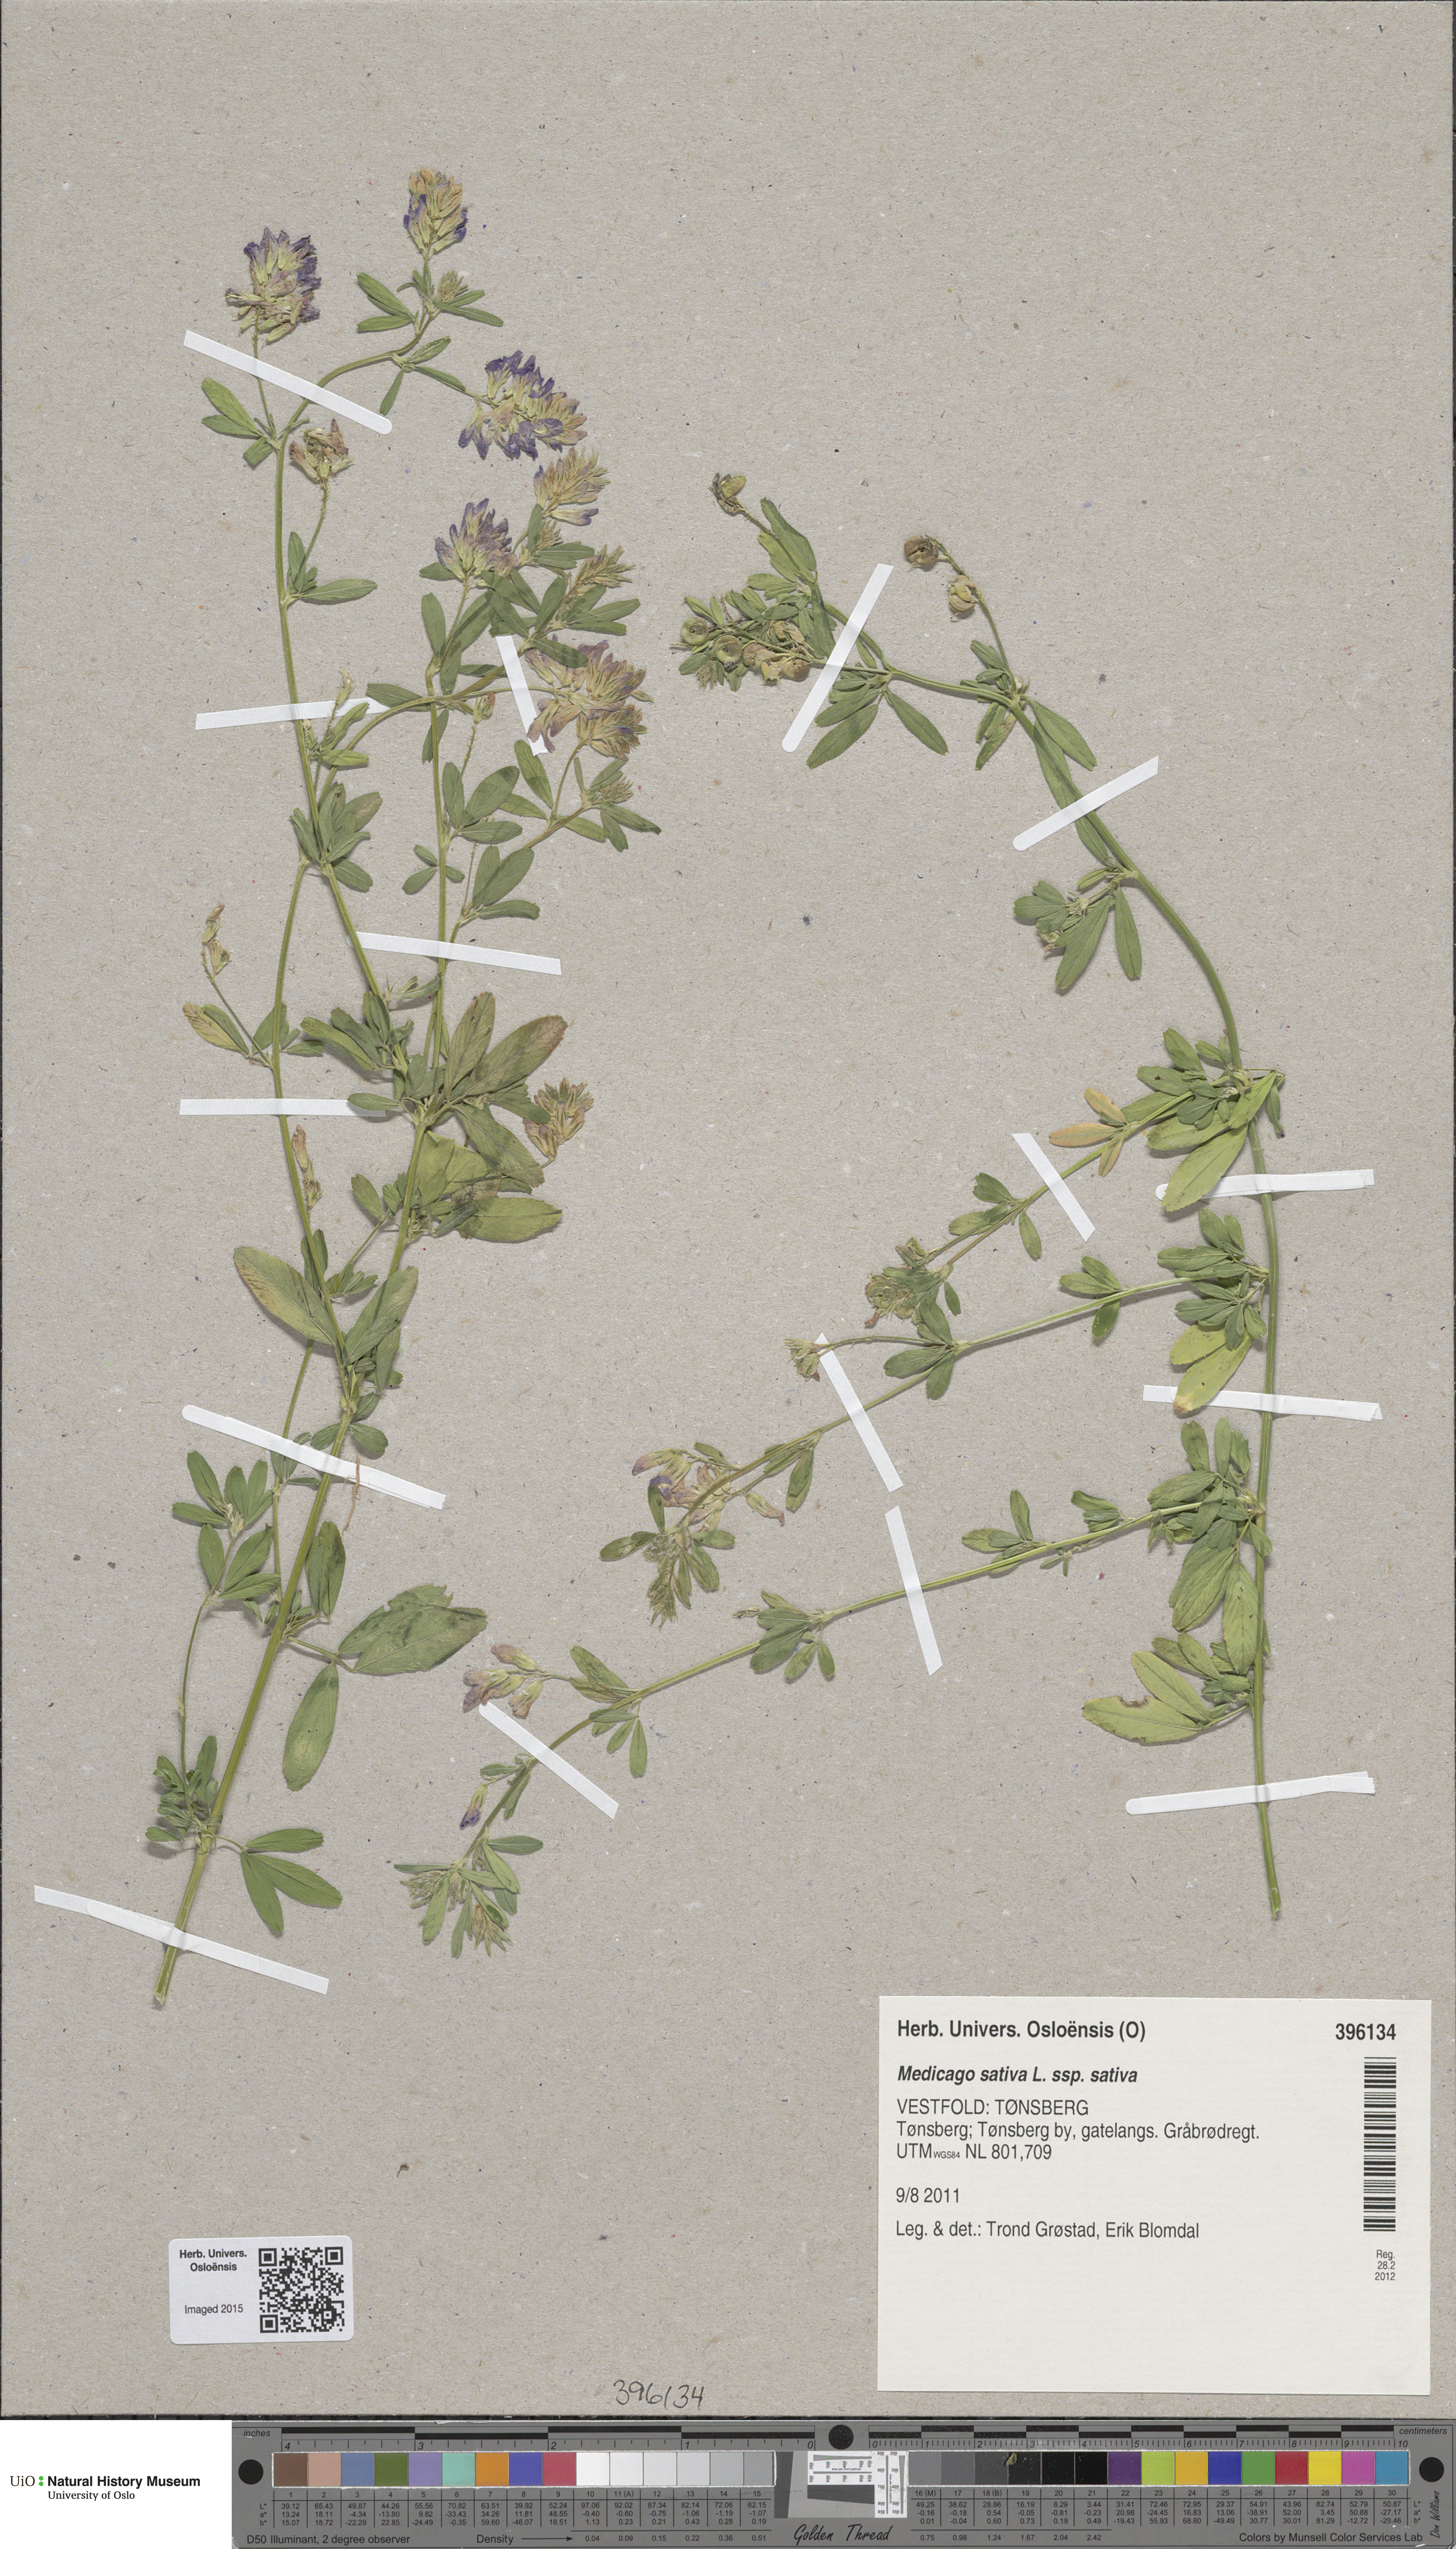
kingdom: Plantae
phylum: Tracheophyta
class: Magnoliopsida
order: Fabales
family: Fabaceae
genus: Medicago
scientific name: Medicago sativa
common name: Alfalfa
